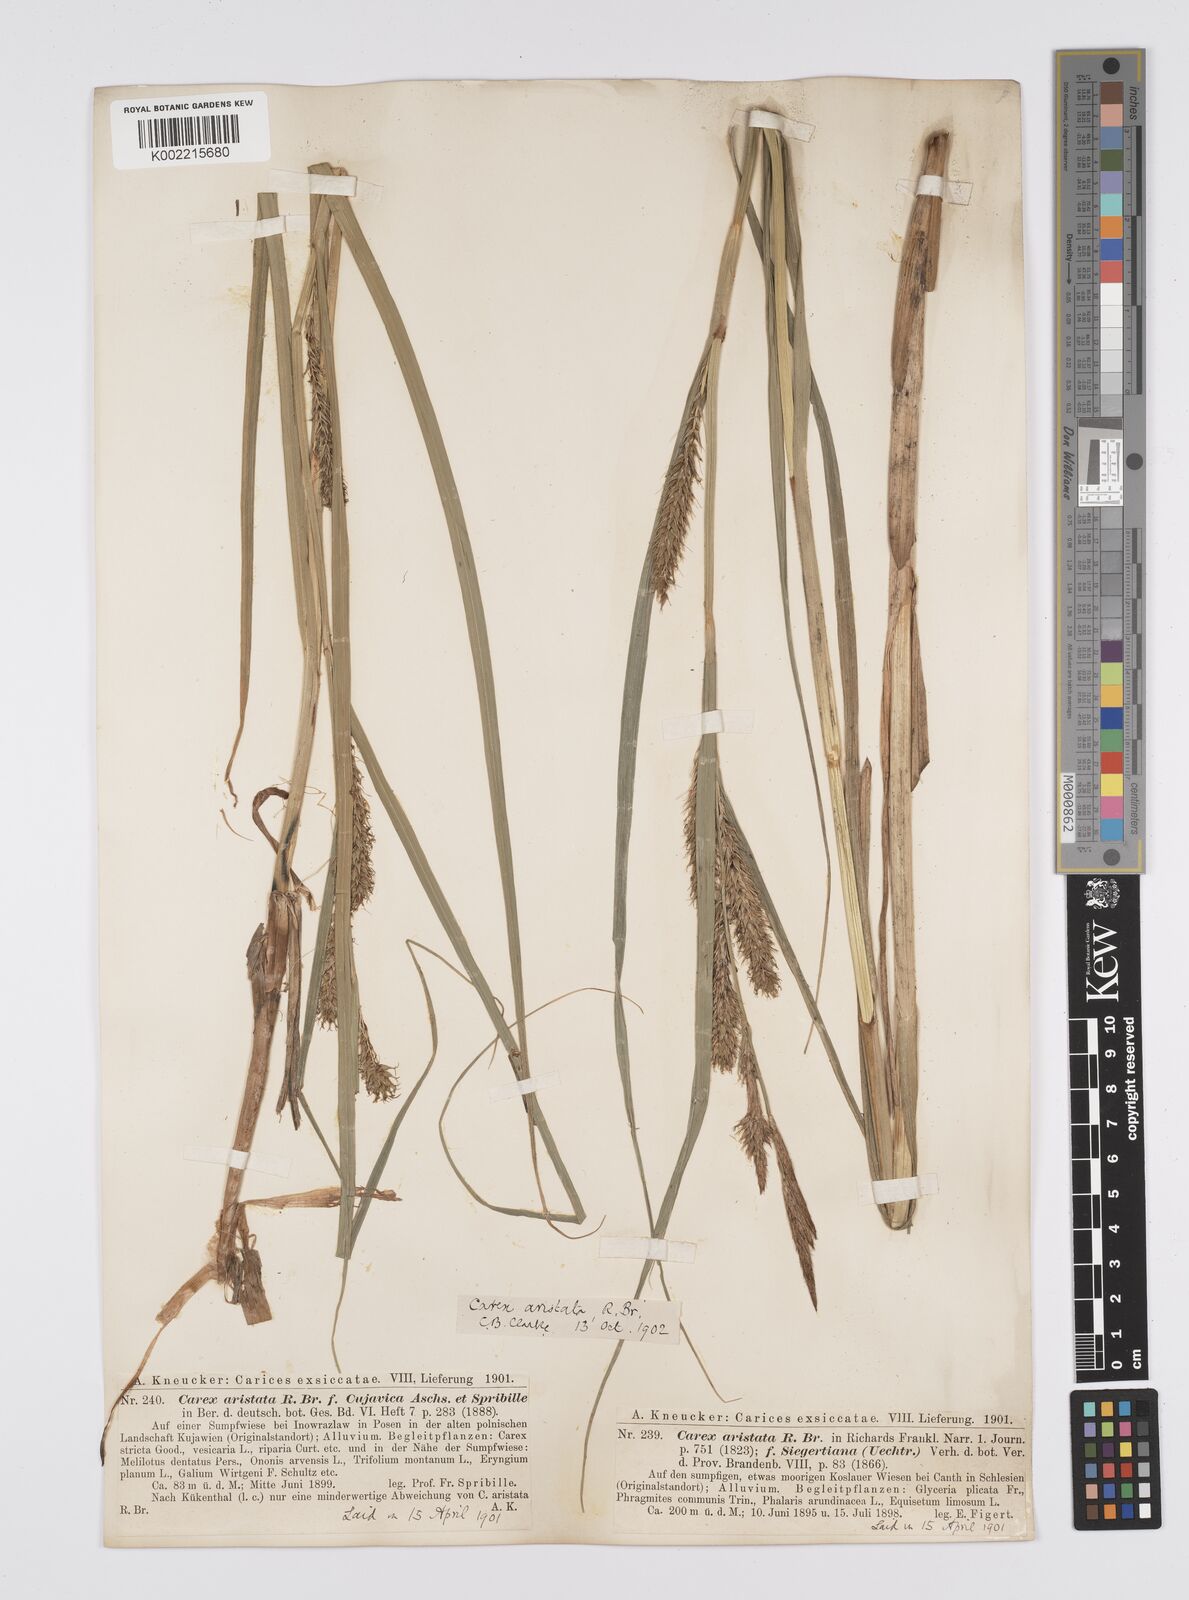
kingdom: Plantae
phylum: Tracheophyta
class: Liliopsida
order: Poales
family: Cyperaceae
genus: Carex
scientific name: Carex davisii
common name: Davis' sedge
